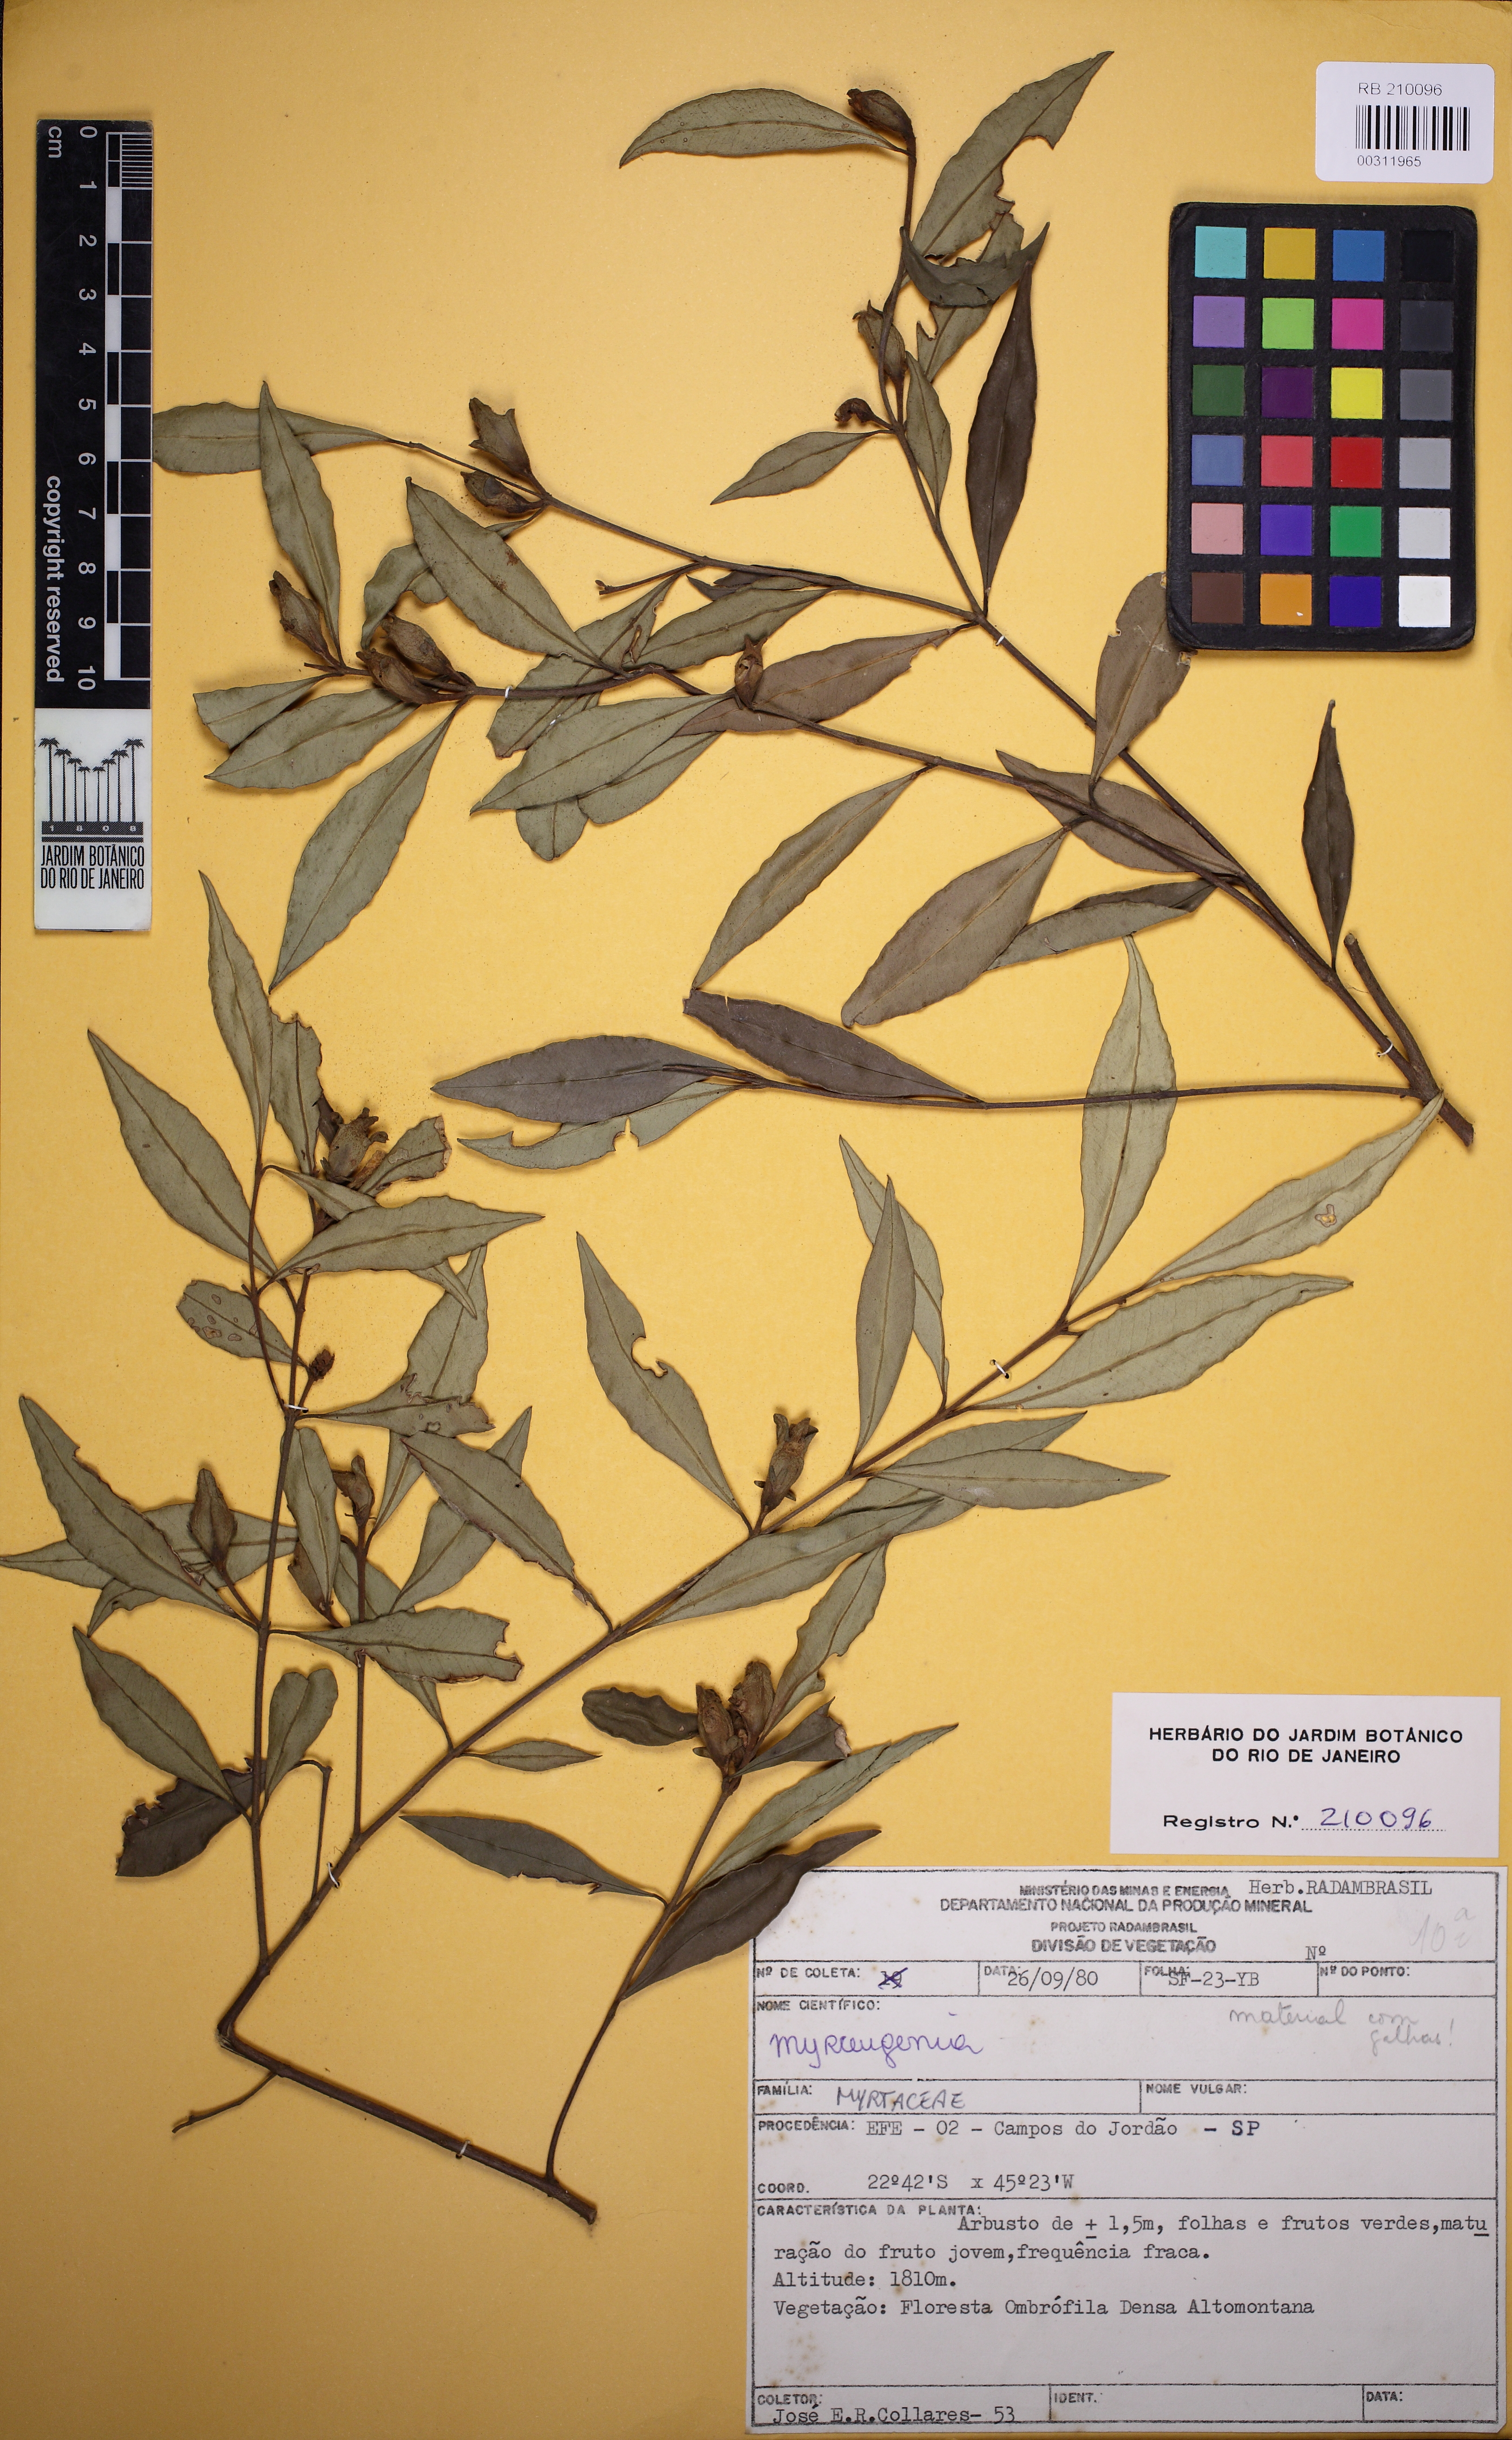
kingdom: Plantae
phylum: Tracheophyta
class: Magnoliopsida
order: Myrtales
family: Myrtaceae
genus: Myrceugenia
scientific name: Myrceugenia
